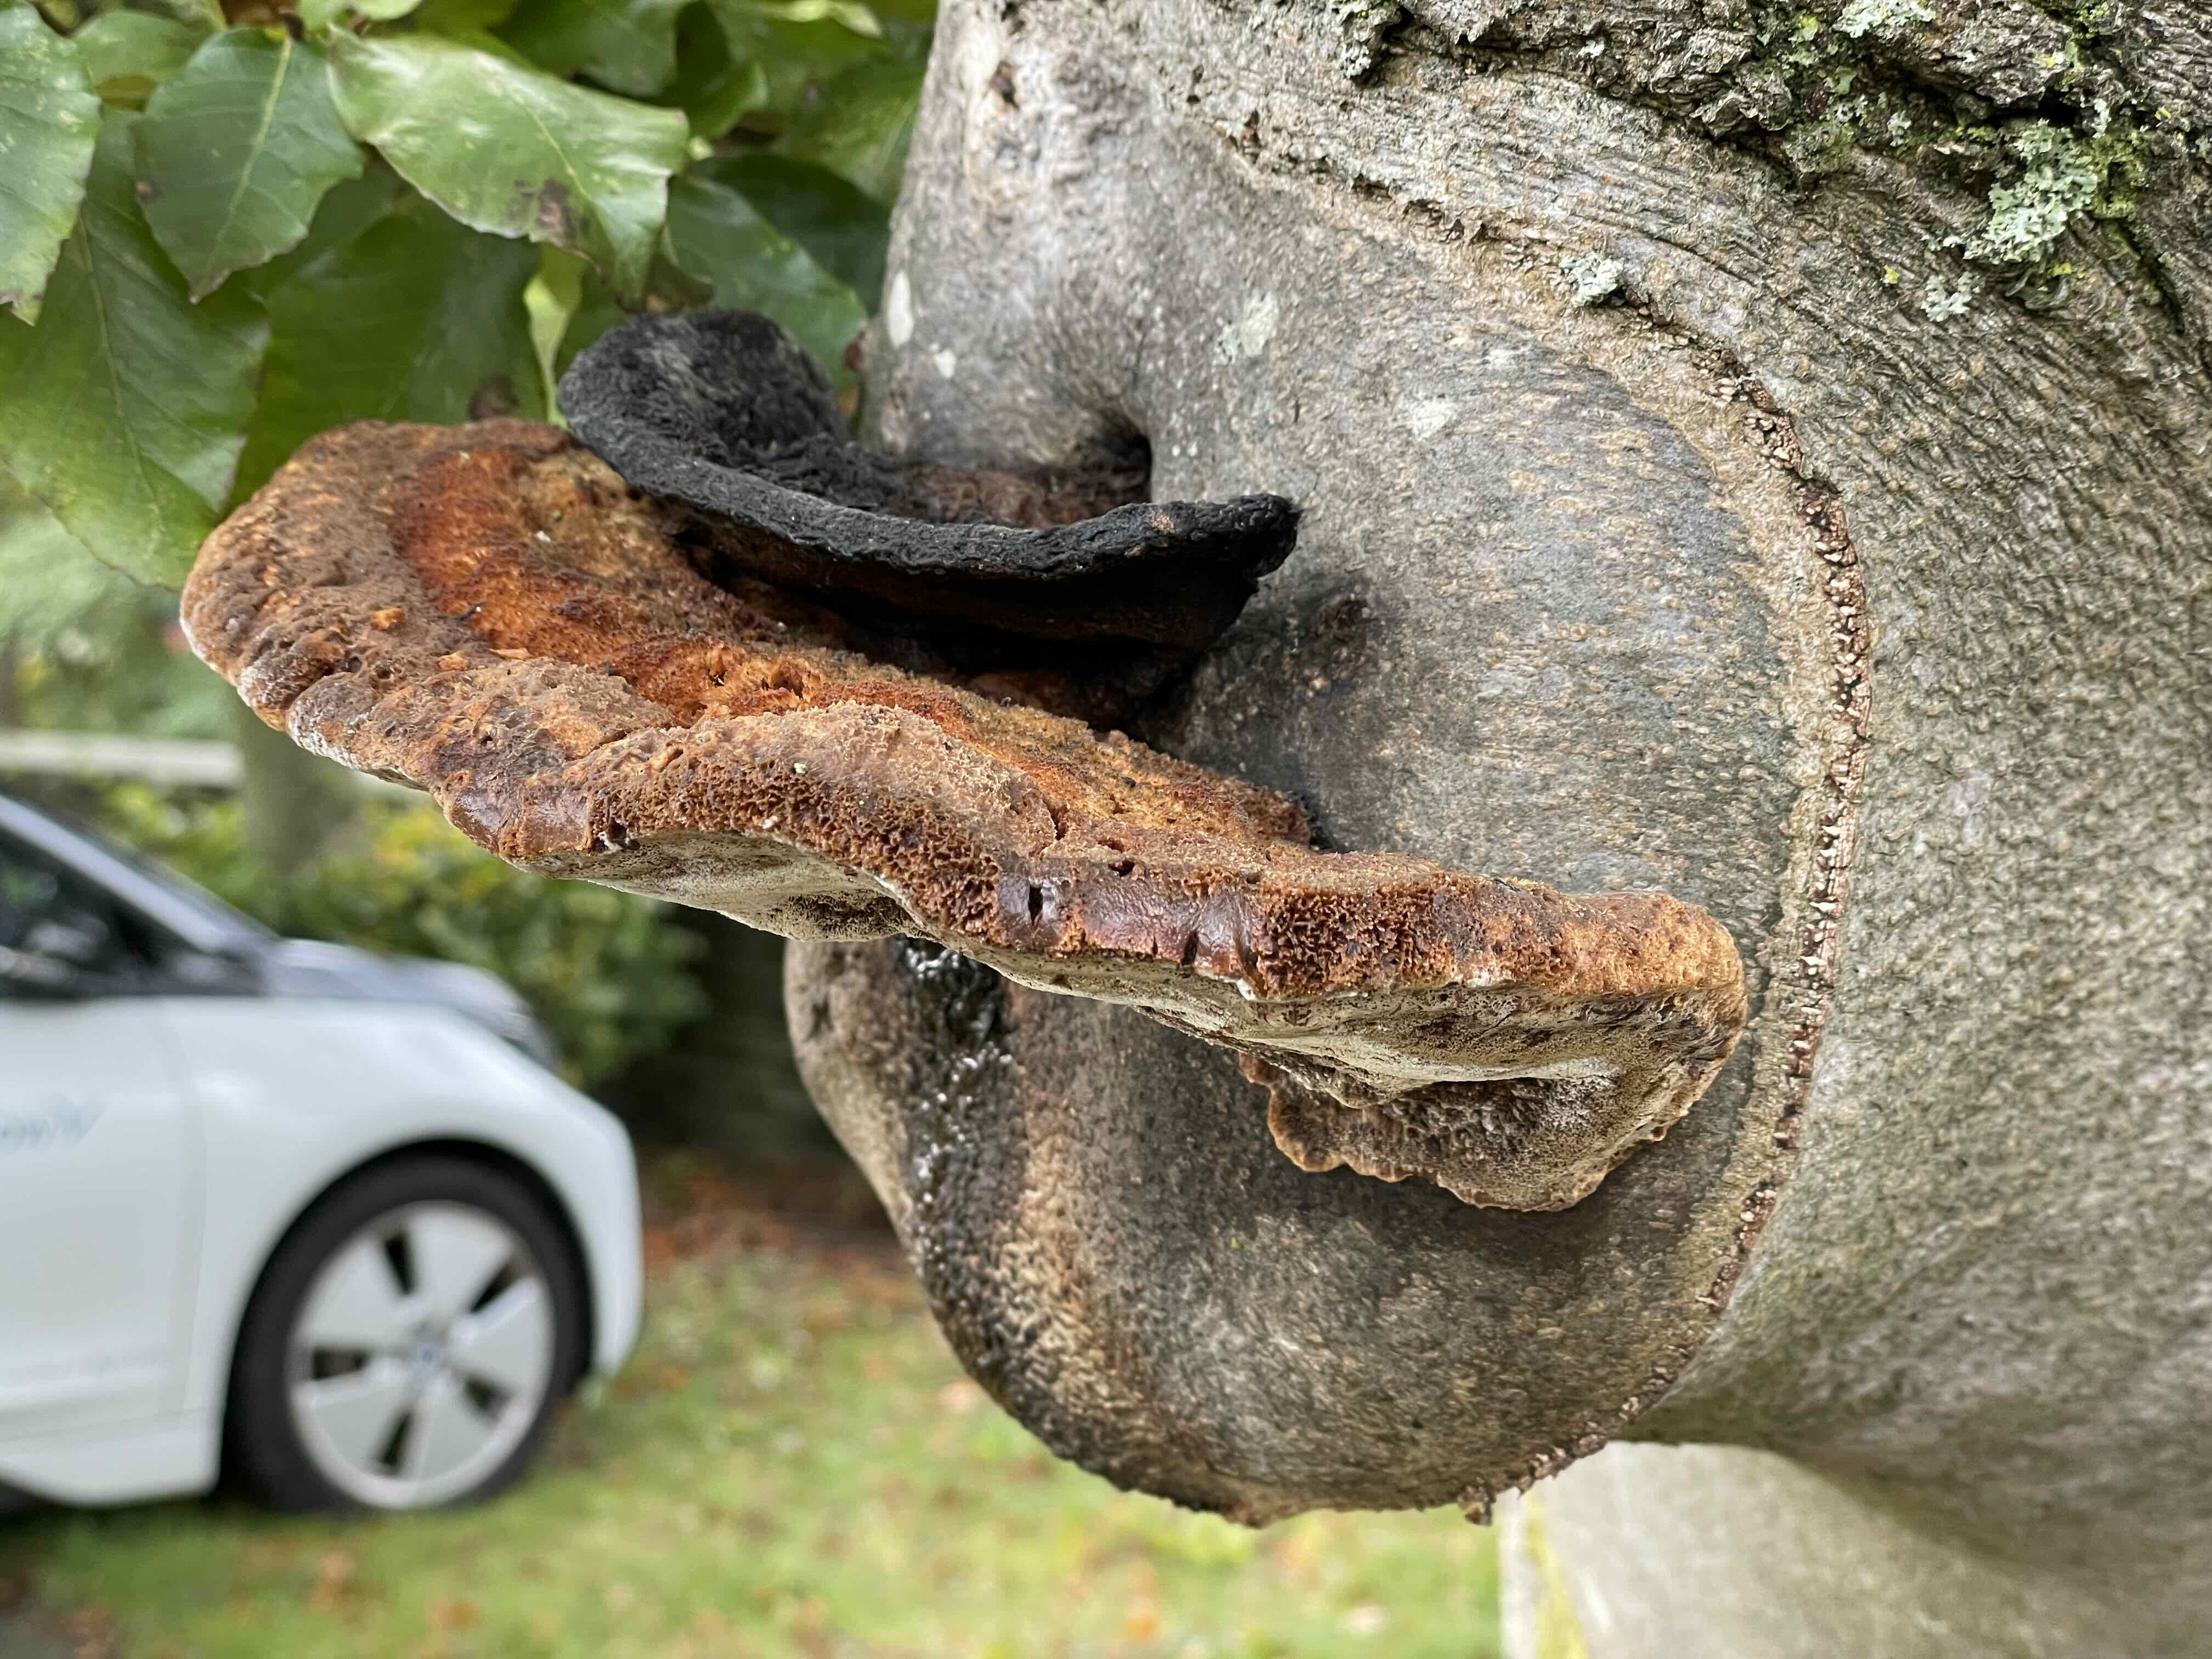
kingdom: Fungi
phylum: Basidiomycota
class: Agaricomycetes
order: Hymenochaetales
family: Hymenochaetaceae
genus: Inonotus
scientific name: Inonotus cuticularis
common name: kroghåret spejlporesvamp
